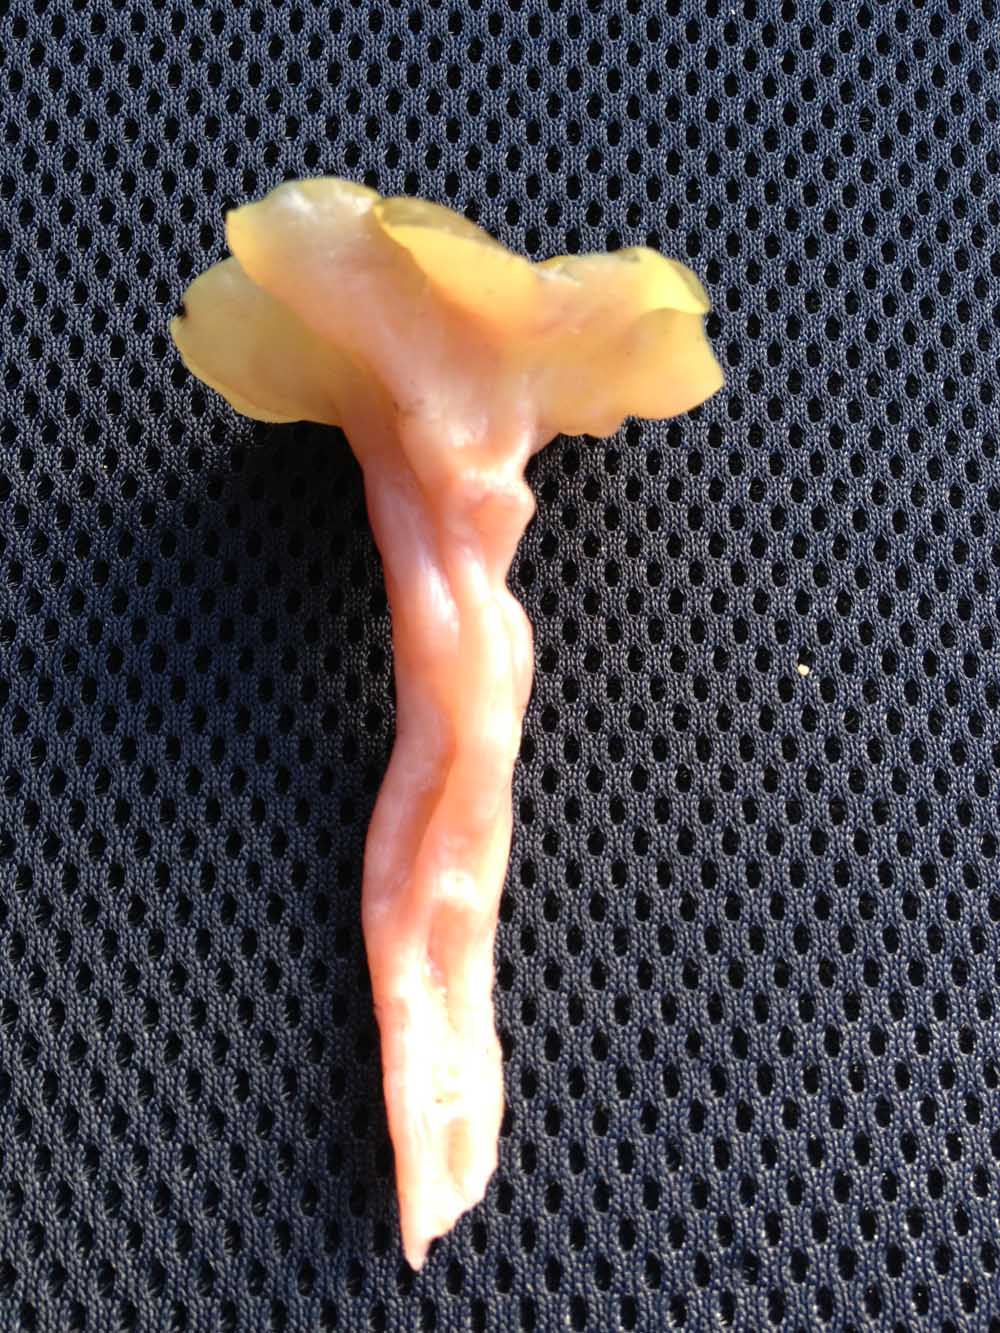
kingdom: Fungi
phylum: Ascomycota
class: Leotiomycetes
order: Helotiales
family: Gelatinodiscaceae
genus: Ascocoryne
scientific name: Ascocoryne turficola
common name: tørve-sejskive
